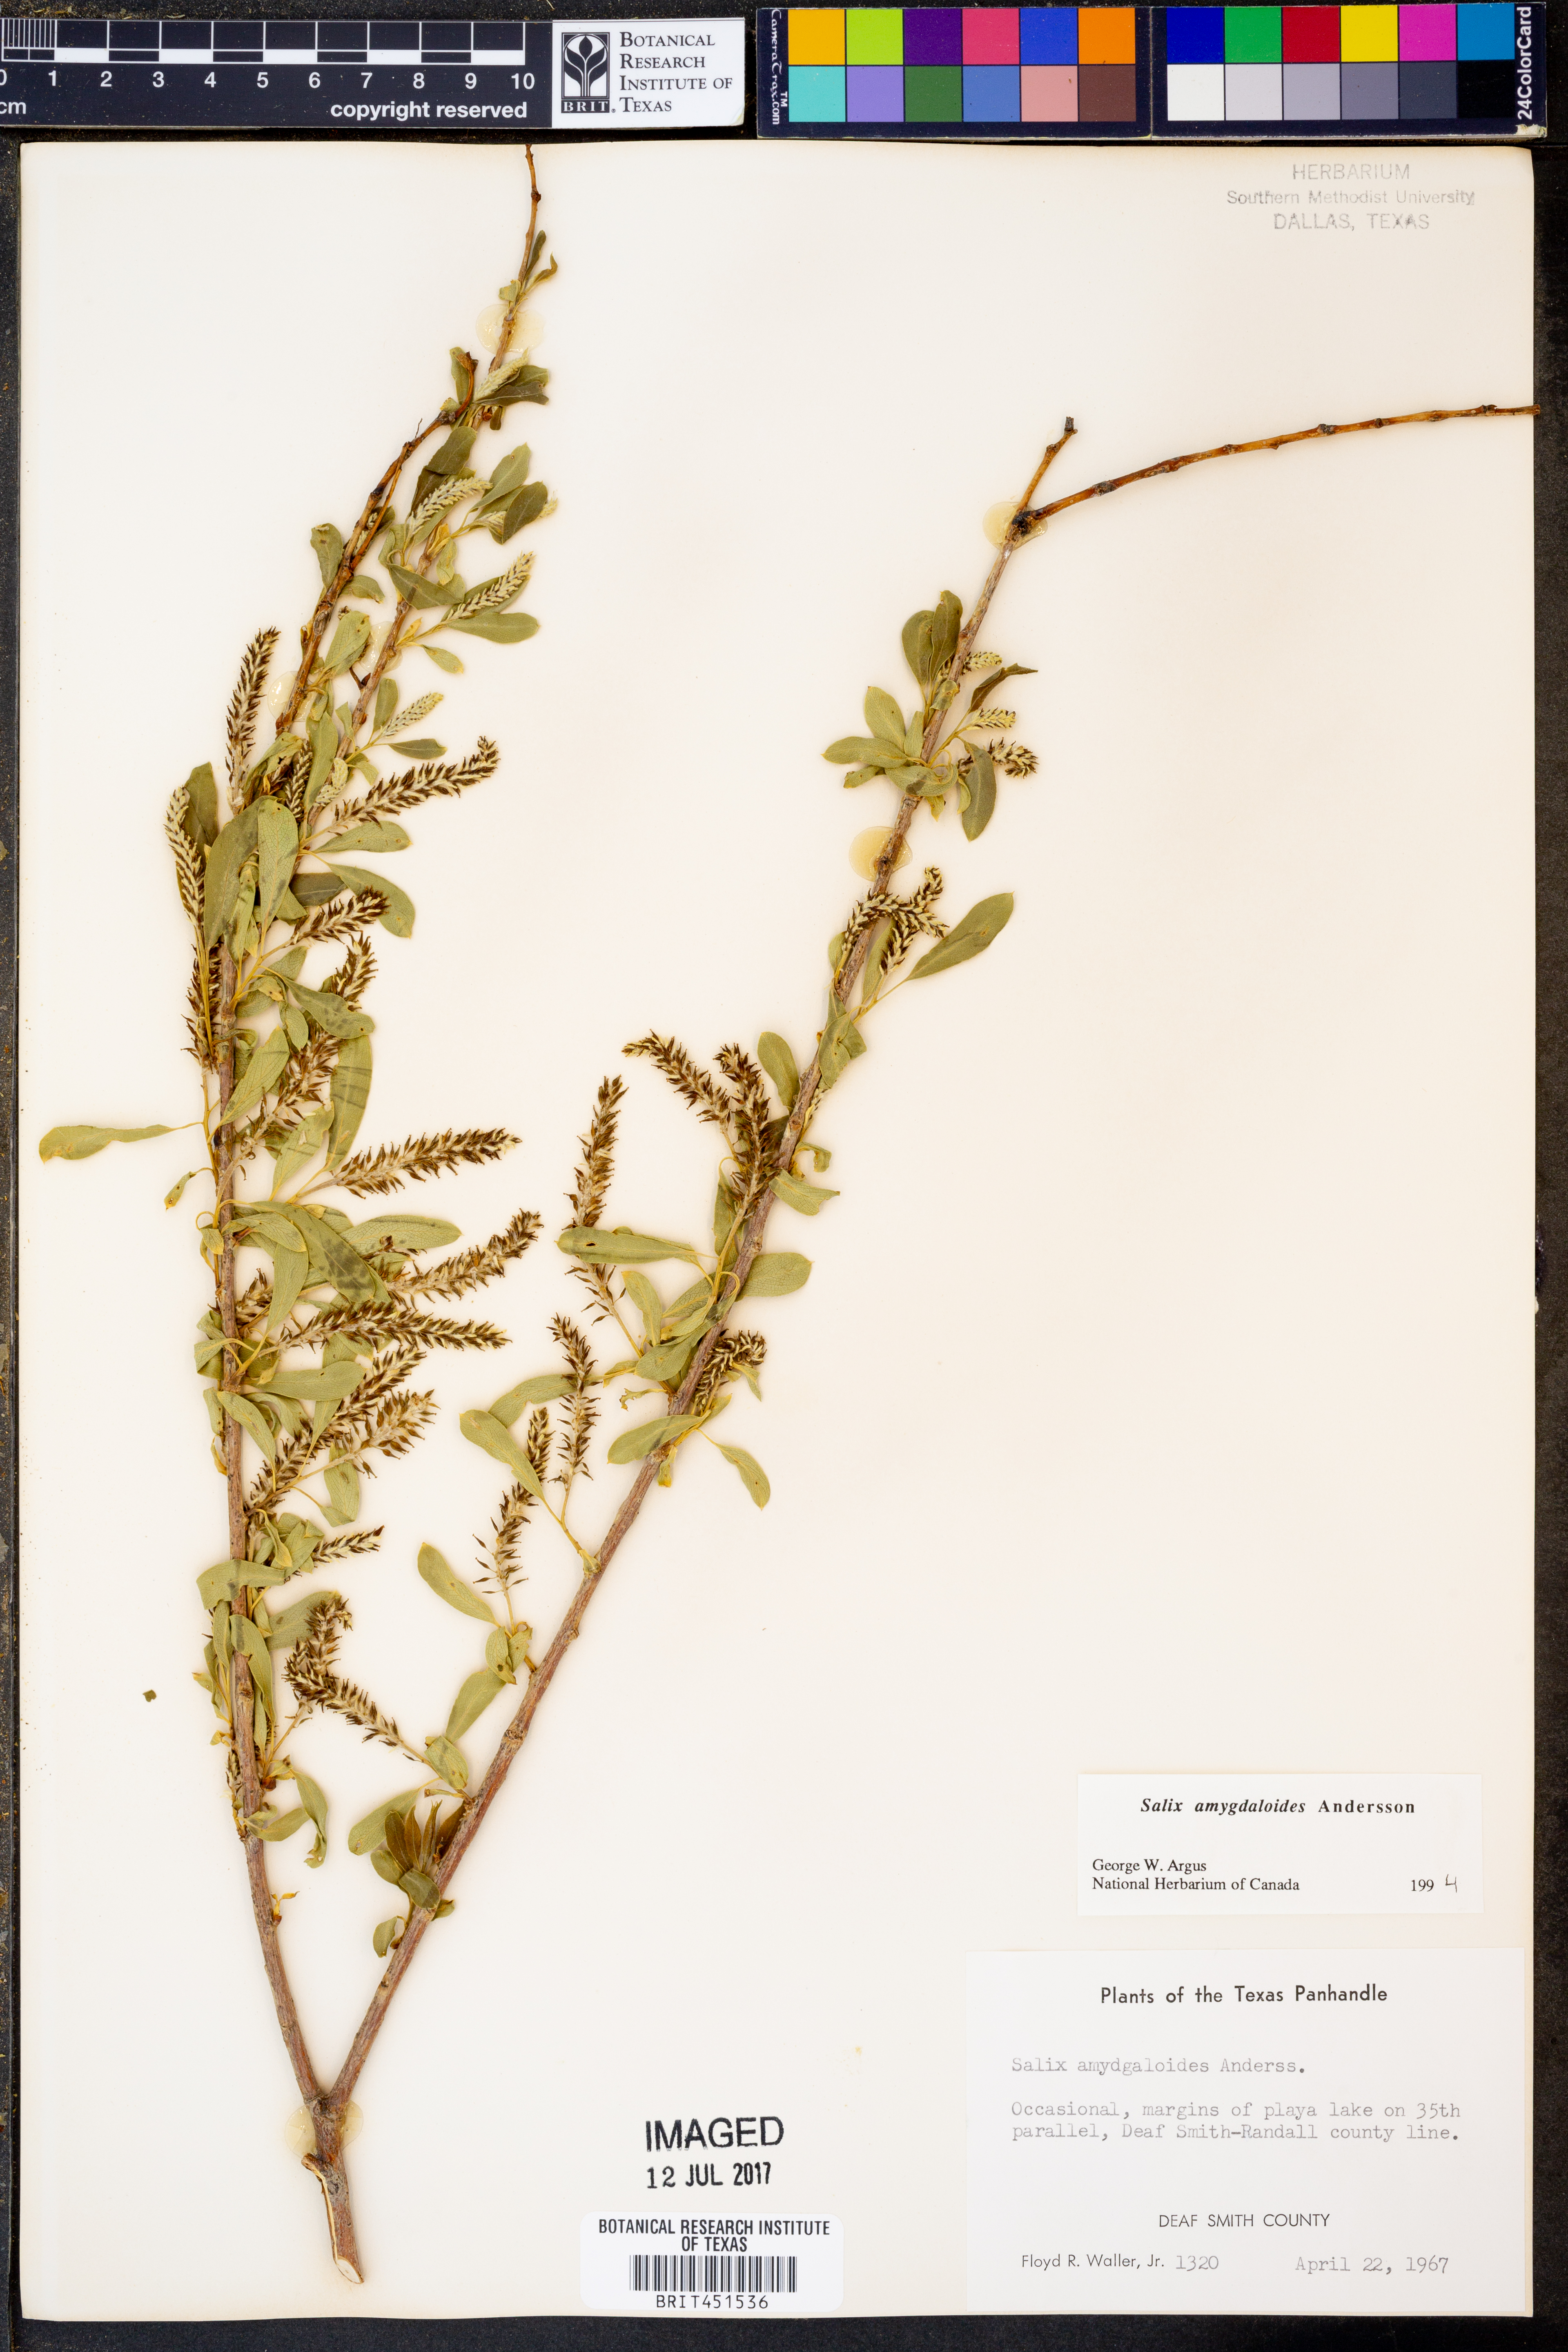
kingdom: Plantae
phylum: Tracheophyta
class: Magnoliopsida
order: Malpighiales
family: Salicaceae
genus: Salix
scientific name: Salix amygdaloides
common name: Peach leaf willow
